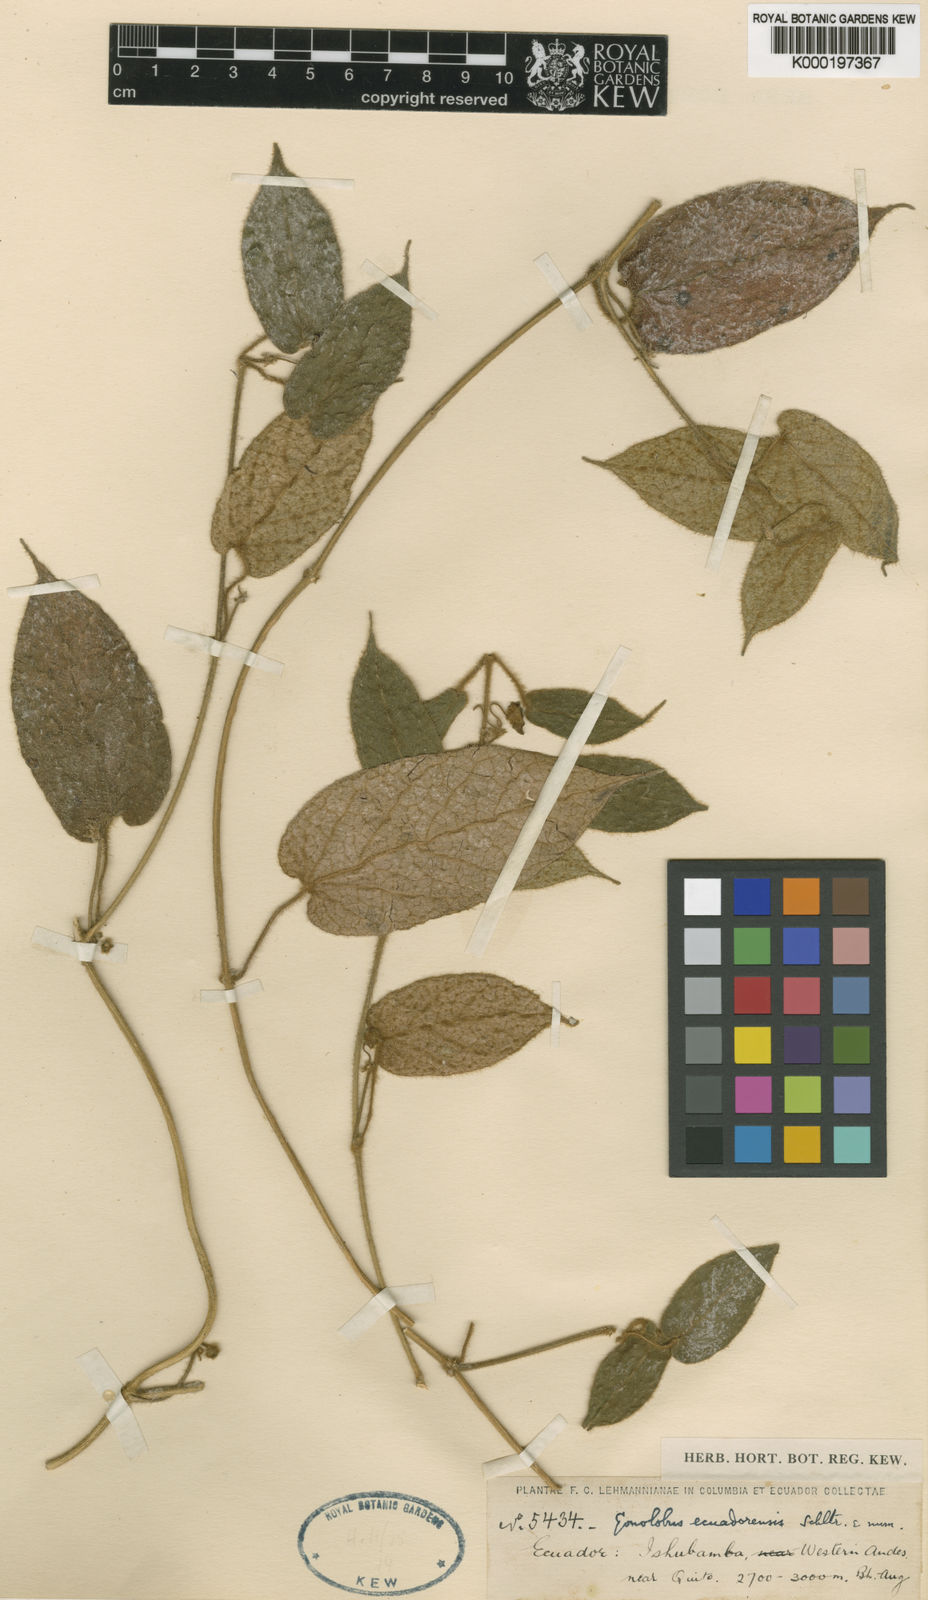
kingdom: Plantae
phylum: Tracheophyta
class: Magnoliopsida
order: Gentianales
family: Apocynaceae
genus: Matelea
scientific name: Matelea ecuadorensis
